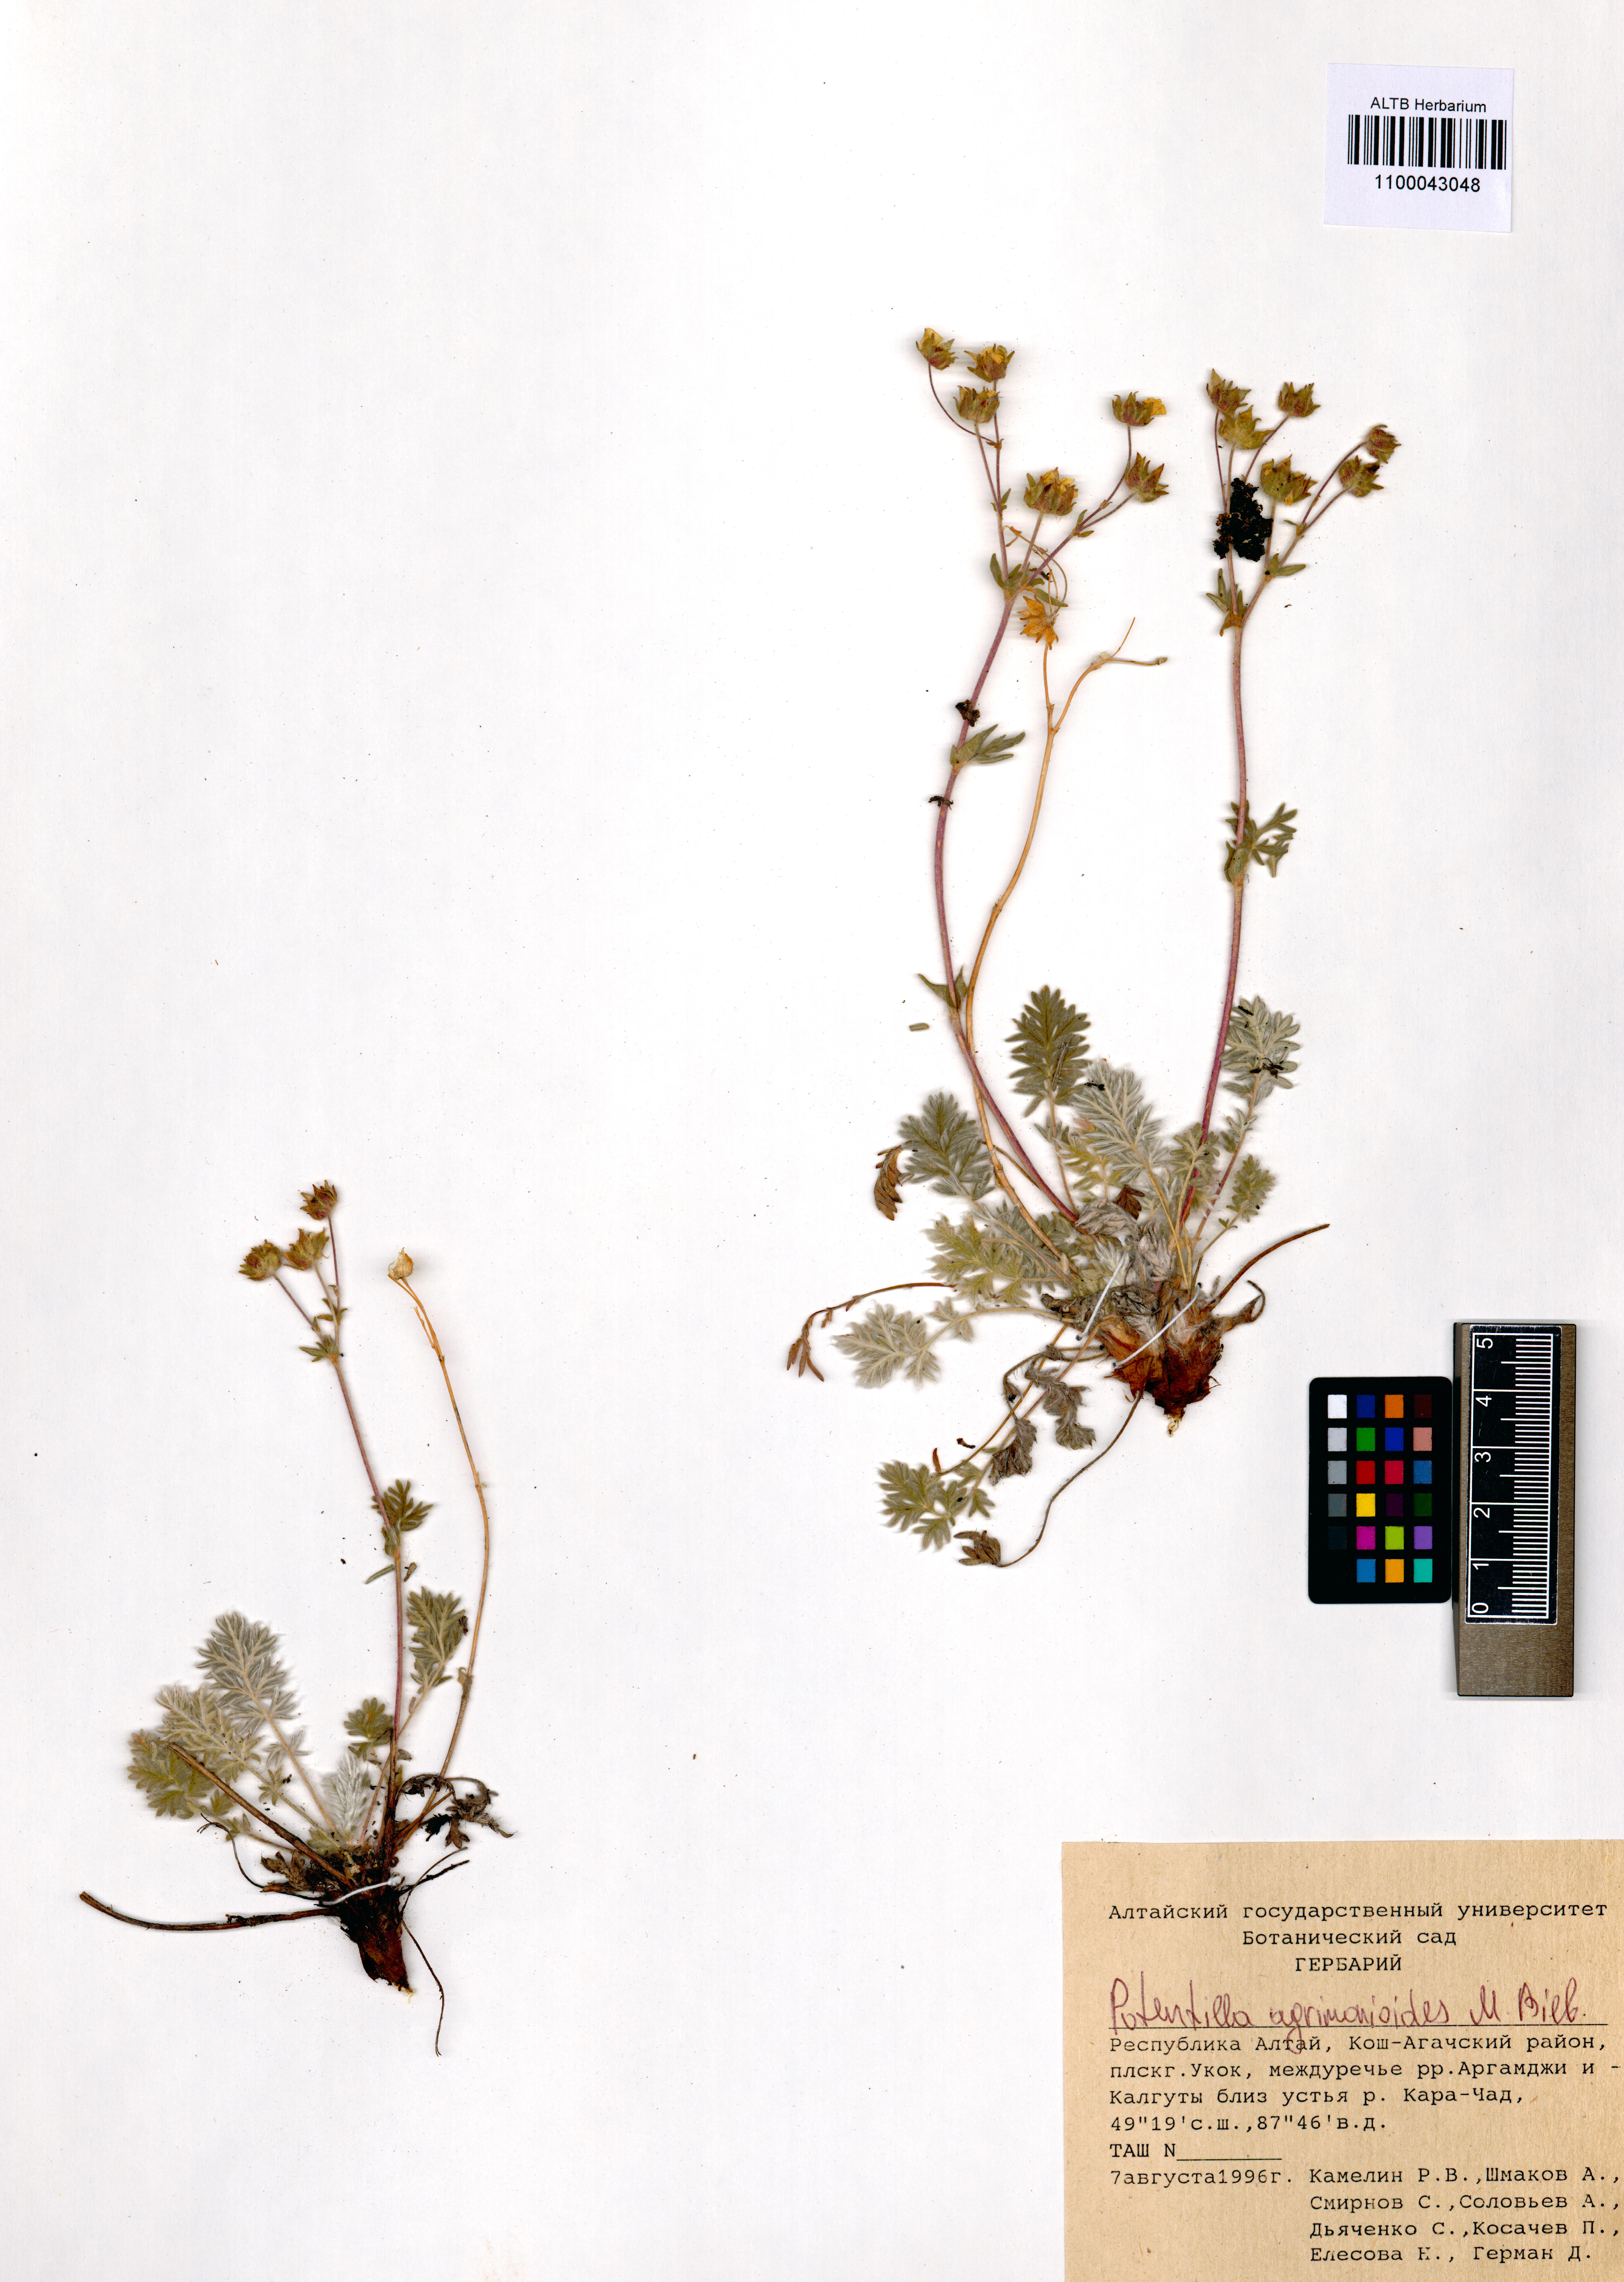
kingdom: Plantae
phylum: Tracheophyta
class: Magnoliopsida
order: Rosales
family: Rosaceae
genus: Potentilla
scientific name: Potentilla agrimonioides
